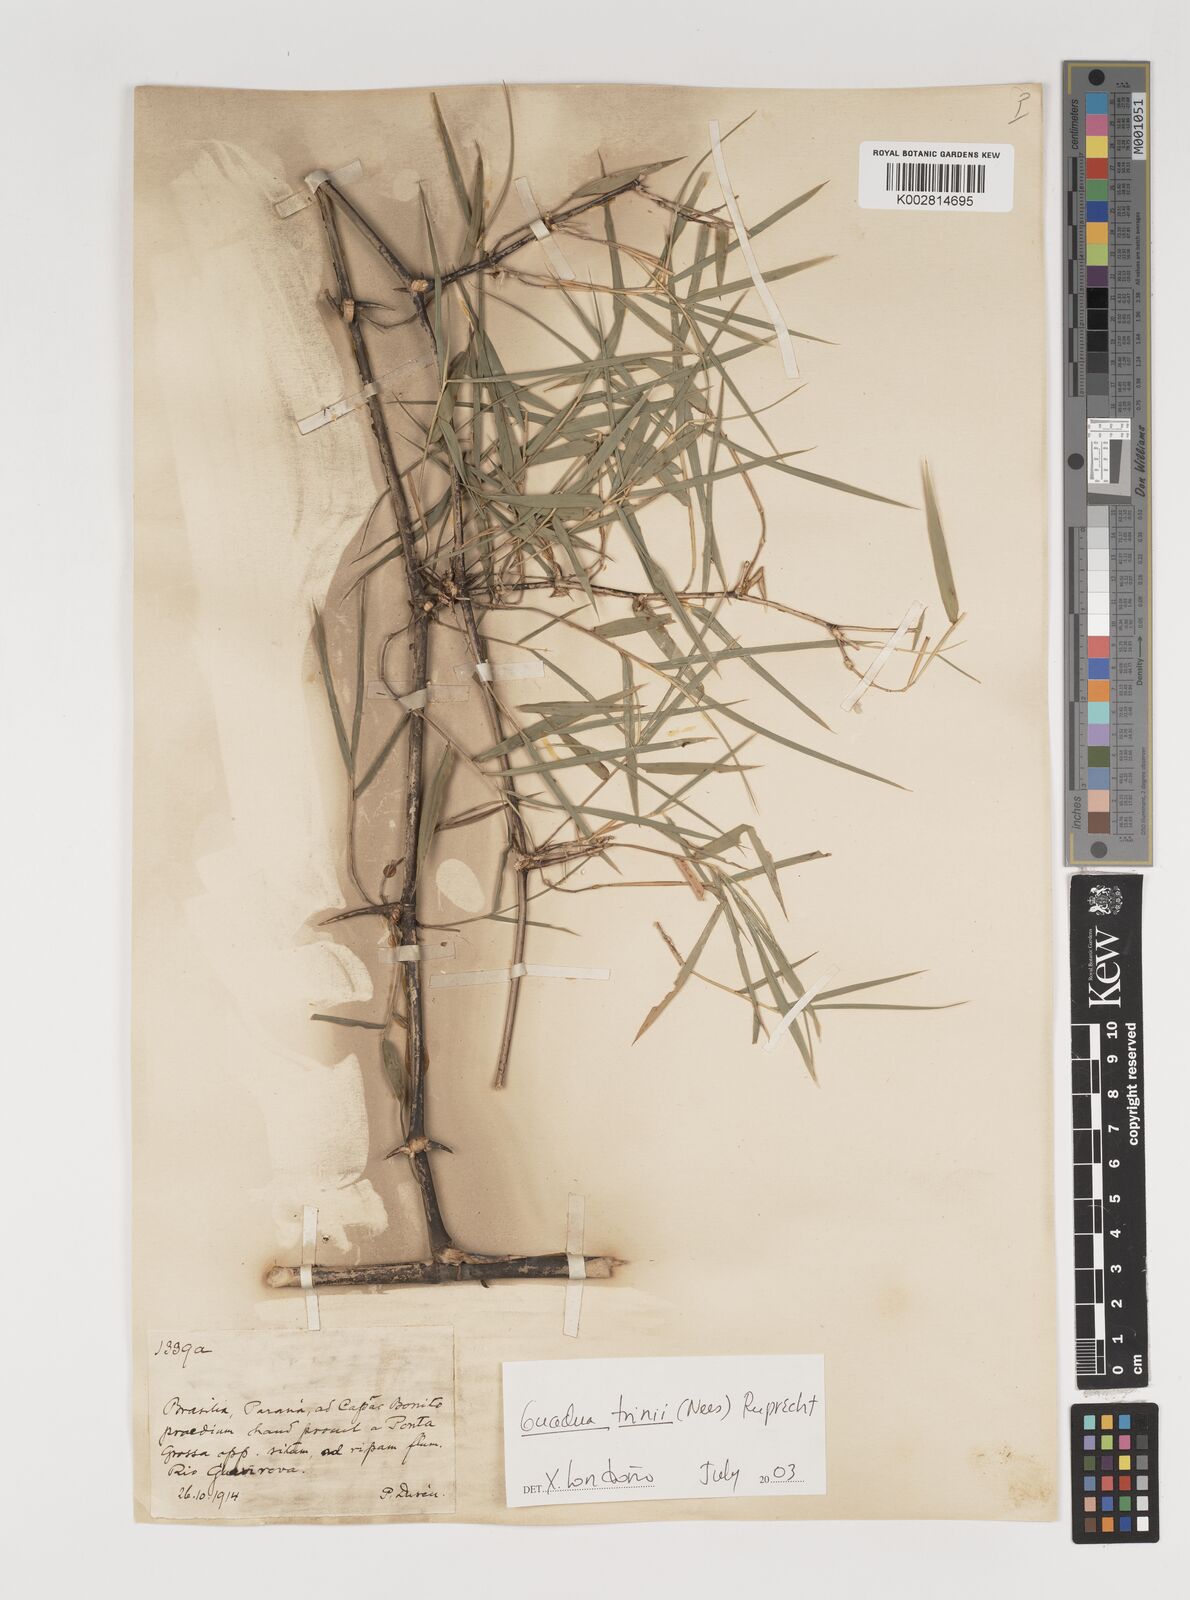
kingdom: Plantae
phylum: Tracheophyta
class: Liliopsida
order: Poales
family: Poaceae
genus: Guadua
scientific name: Guadua trinii
